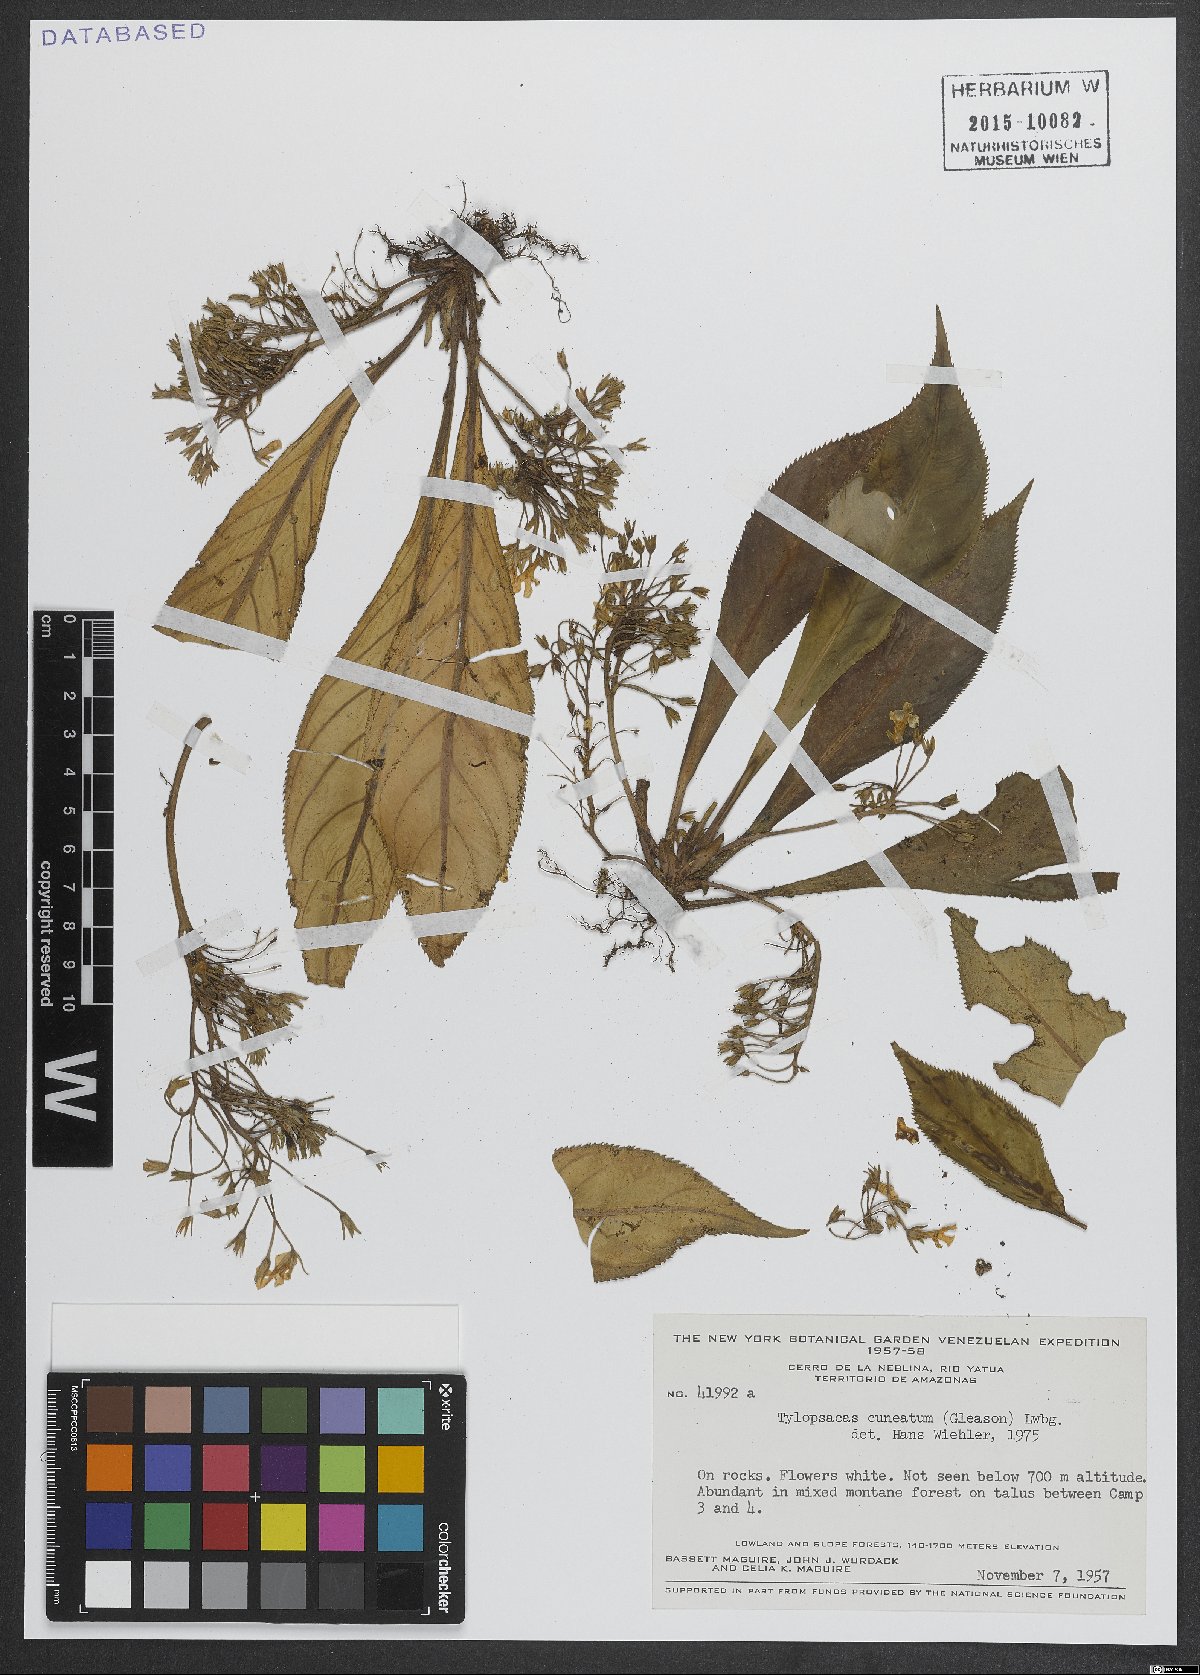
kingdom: Plantae
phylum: Tracheophyta
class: Magnoliopsida
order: Lamiales
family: Gesneriaceae
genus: Tylopsacas
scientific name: Tylopsacas cuneata
